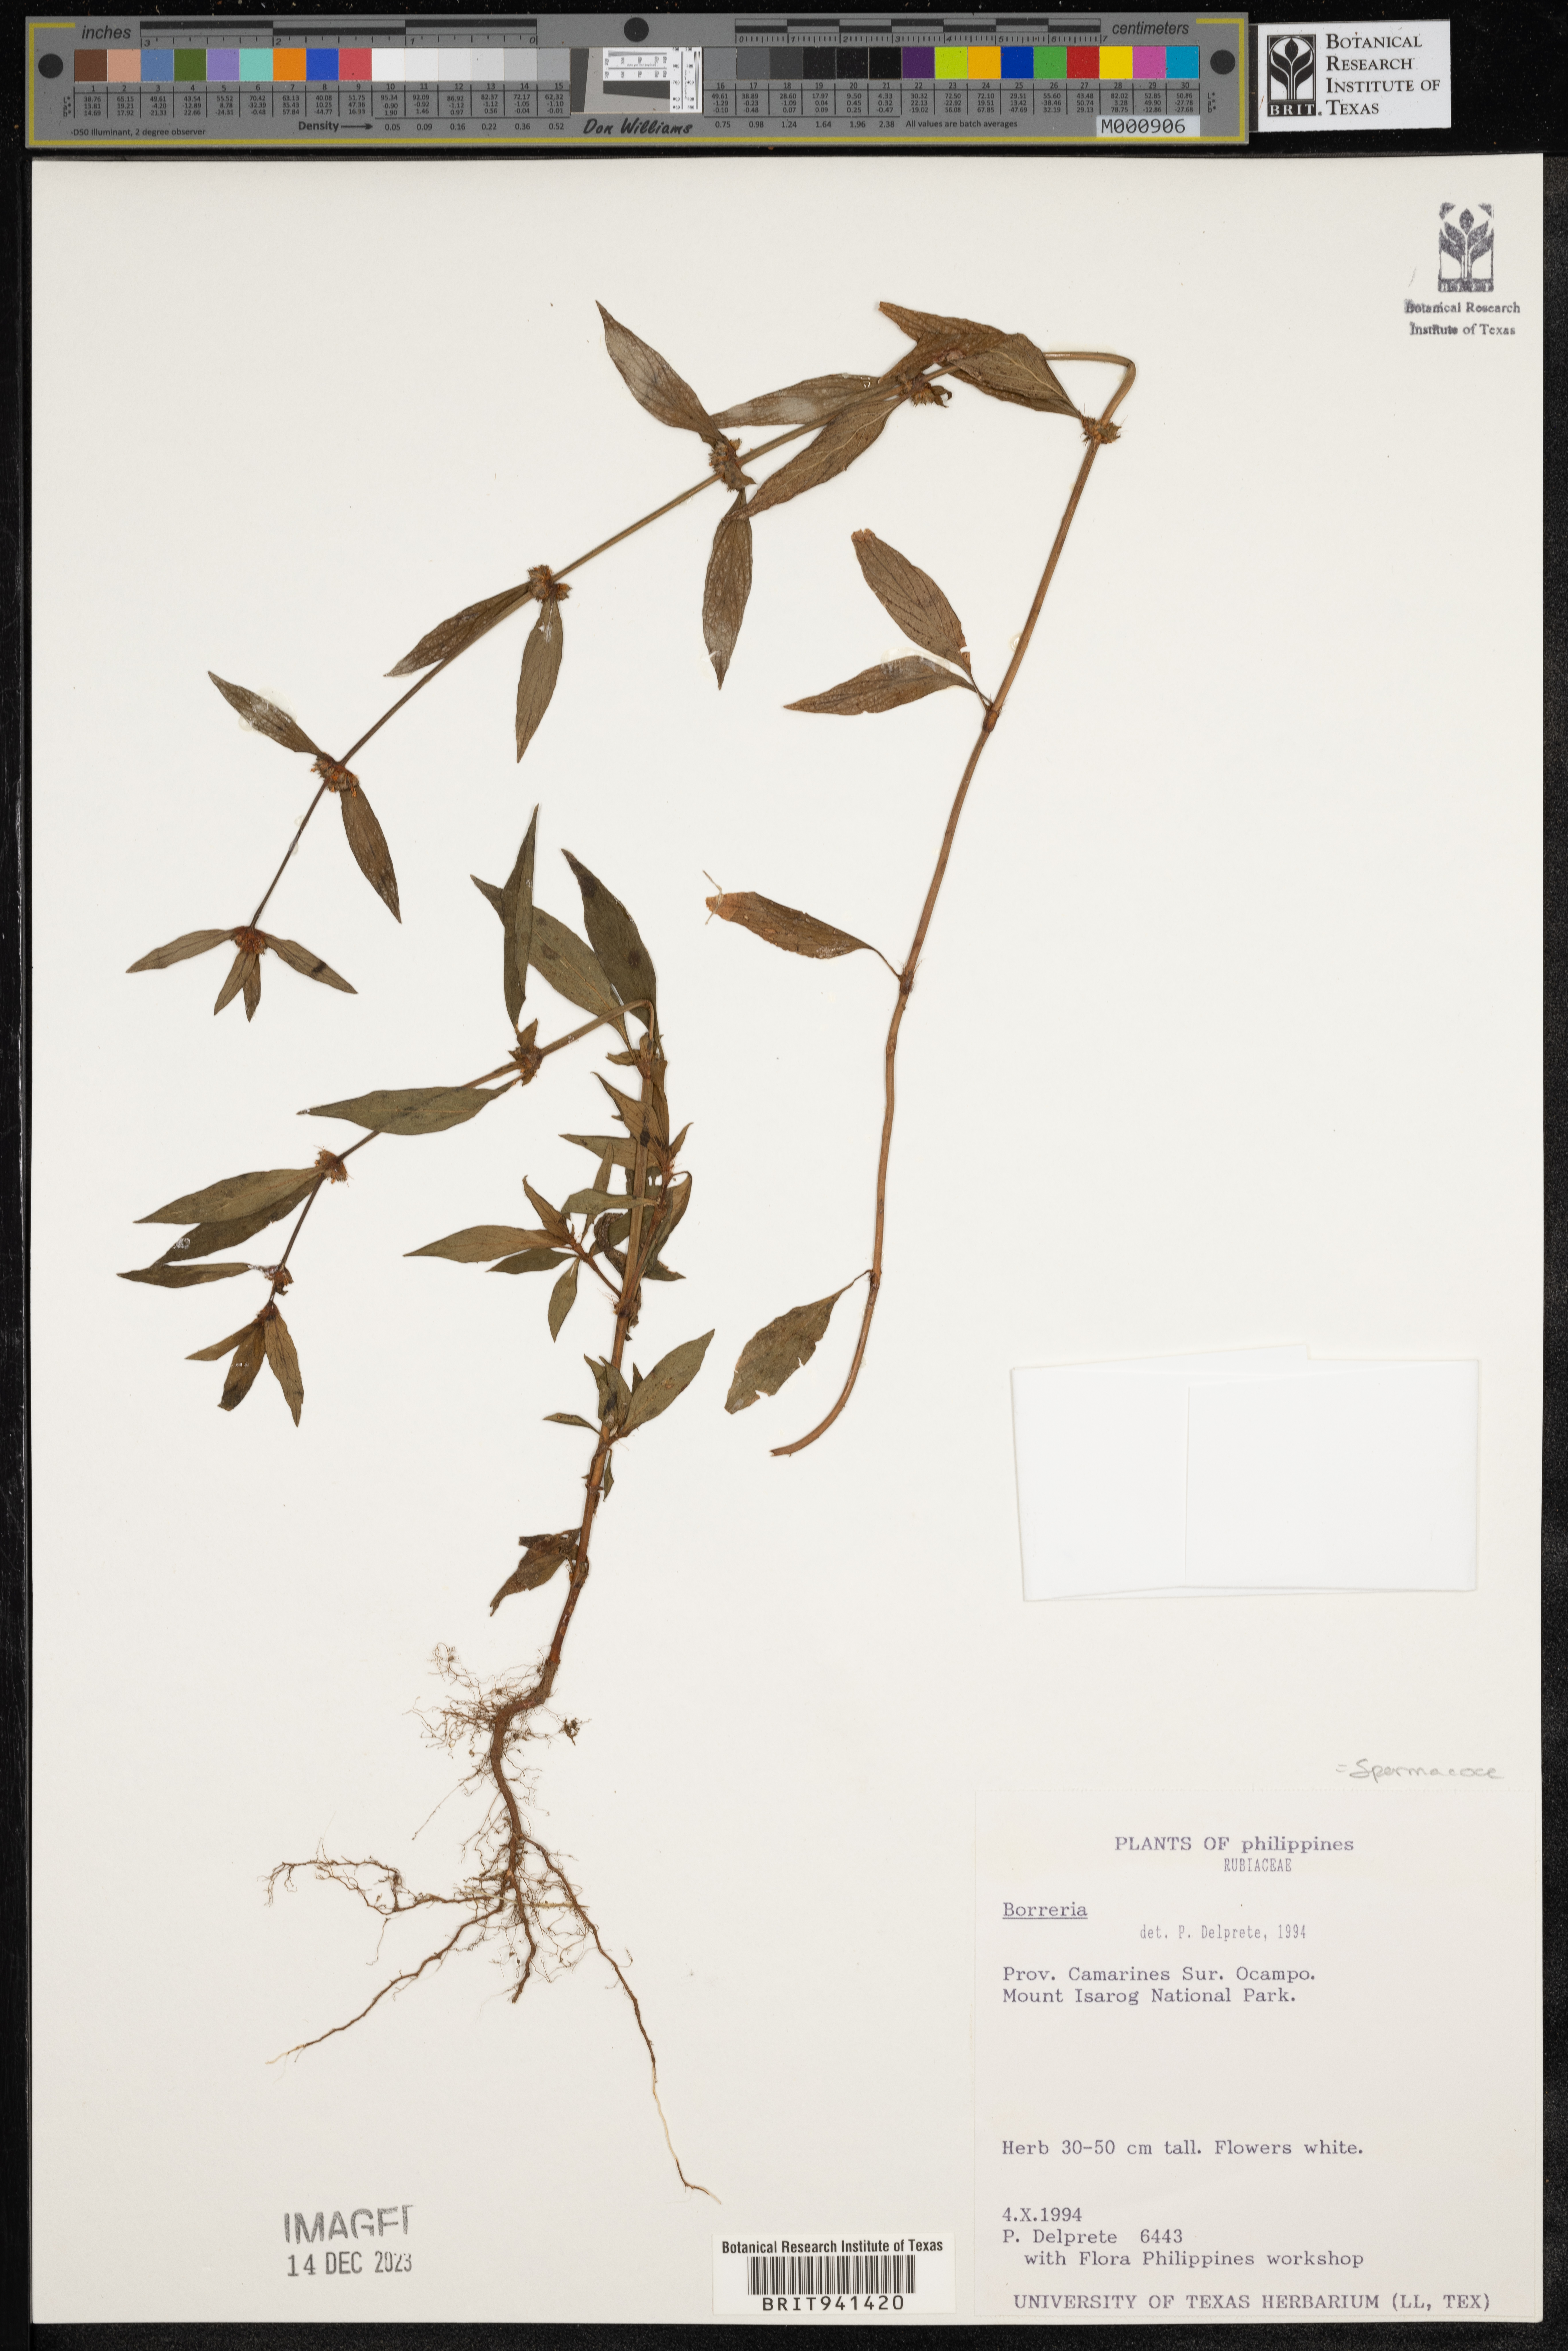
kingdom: Plantae
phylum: Tracheophyta
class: Magnoliopsida
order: Gentianales
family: Rubiaceae
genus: Spermacoce
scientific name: Spermacoce
